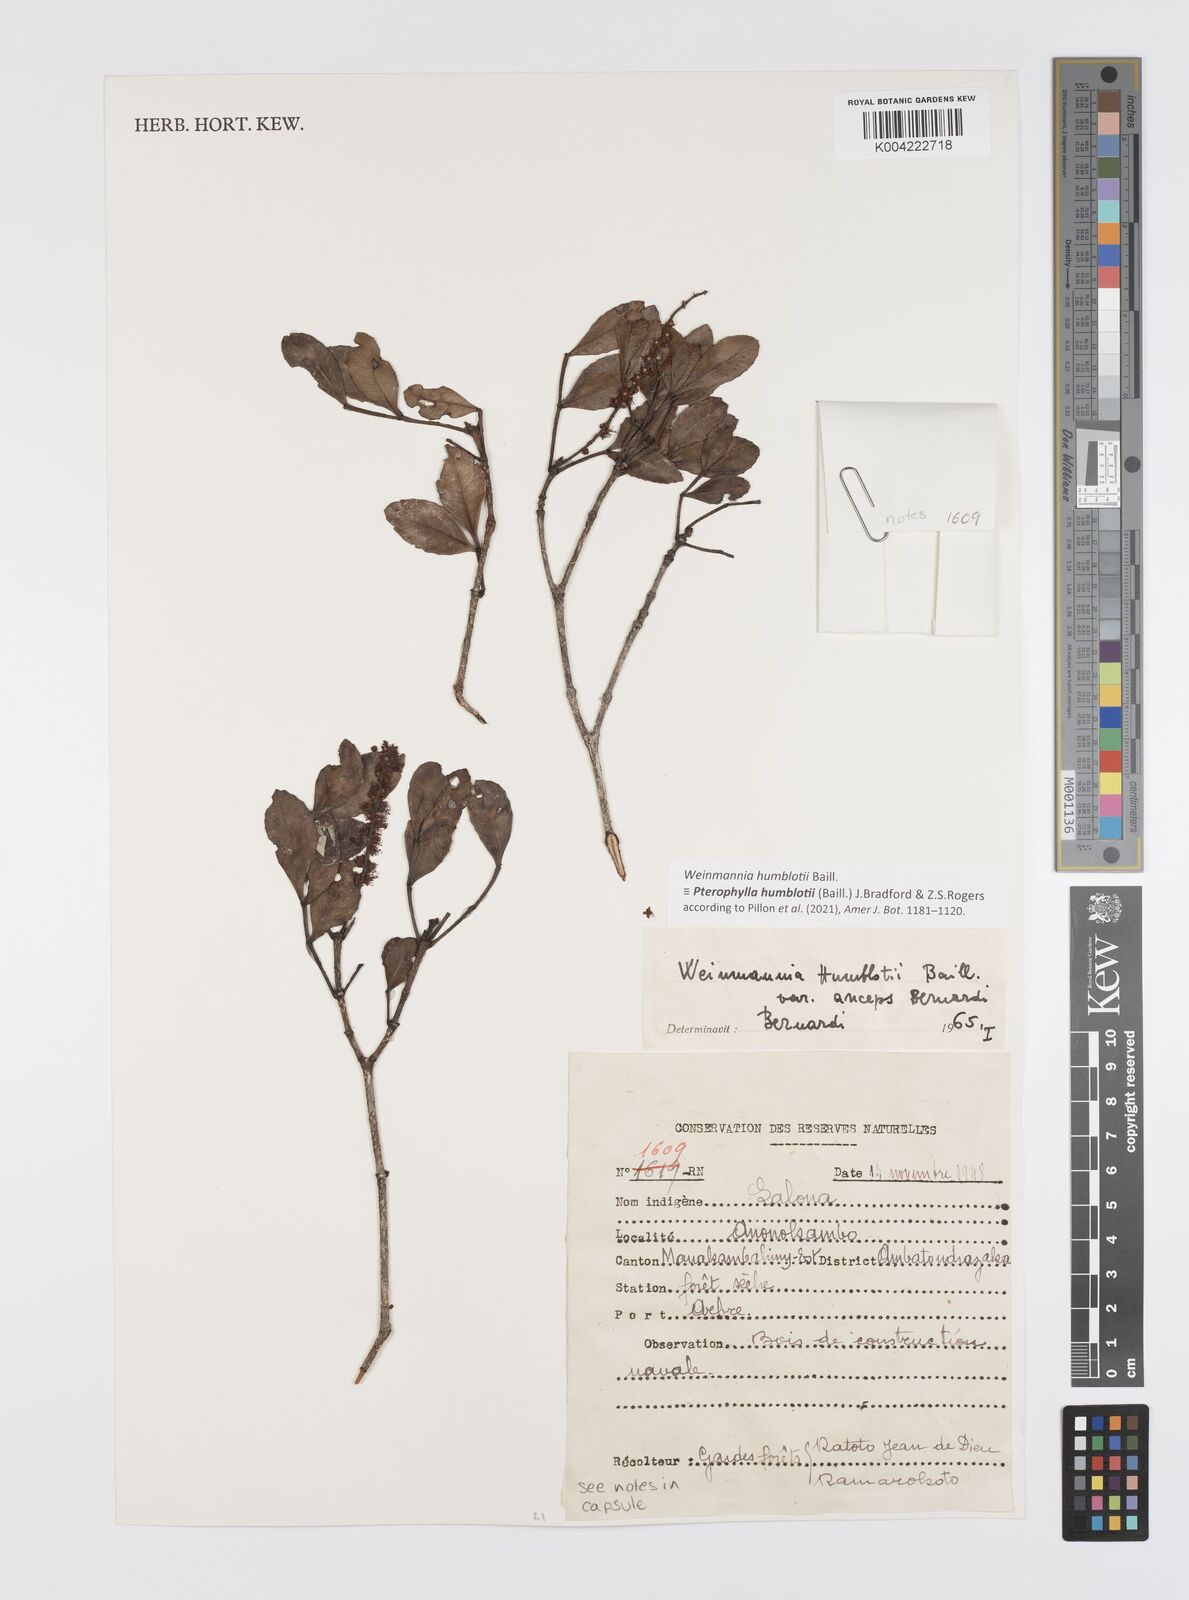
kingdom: Plantae
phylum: Tracheophyta
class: Magnoliopsida
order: Oxalidales
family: Cunoniaceae
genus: Pterophylla
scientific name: Pterophylla
